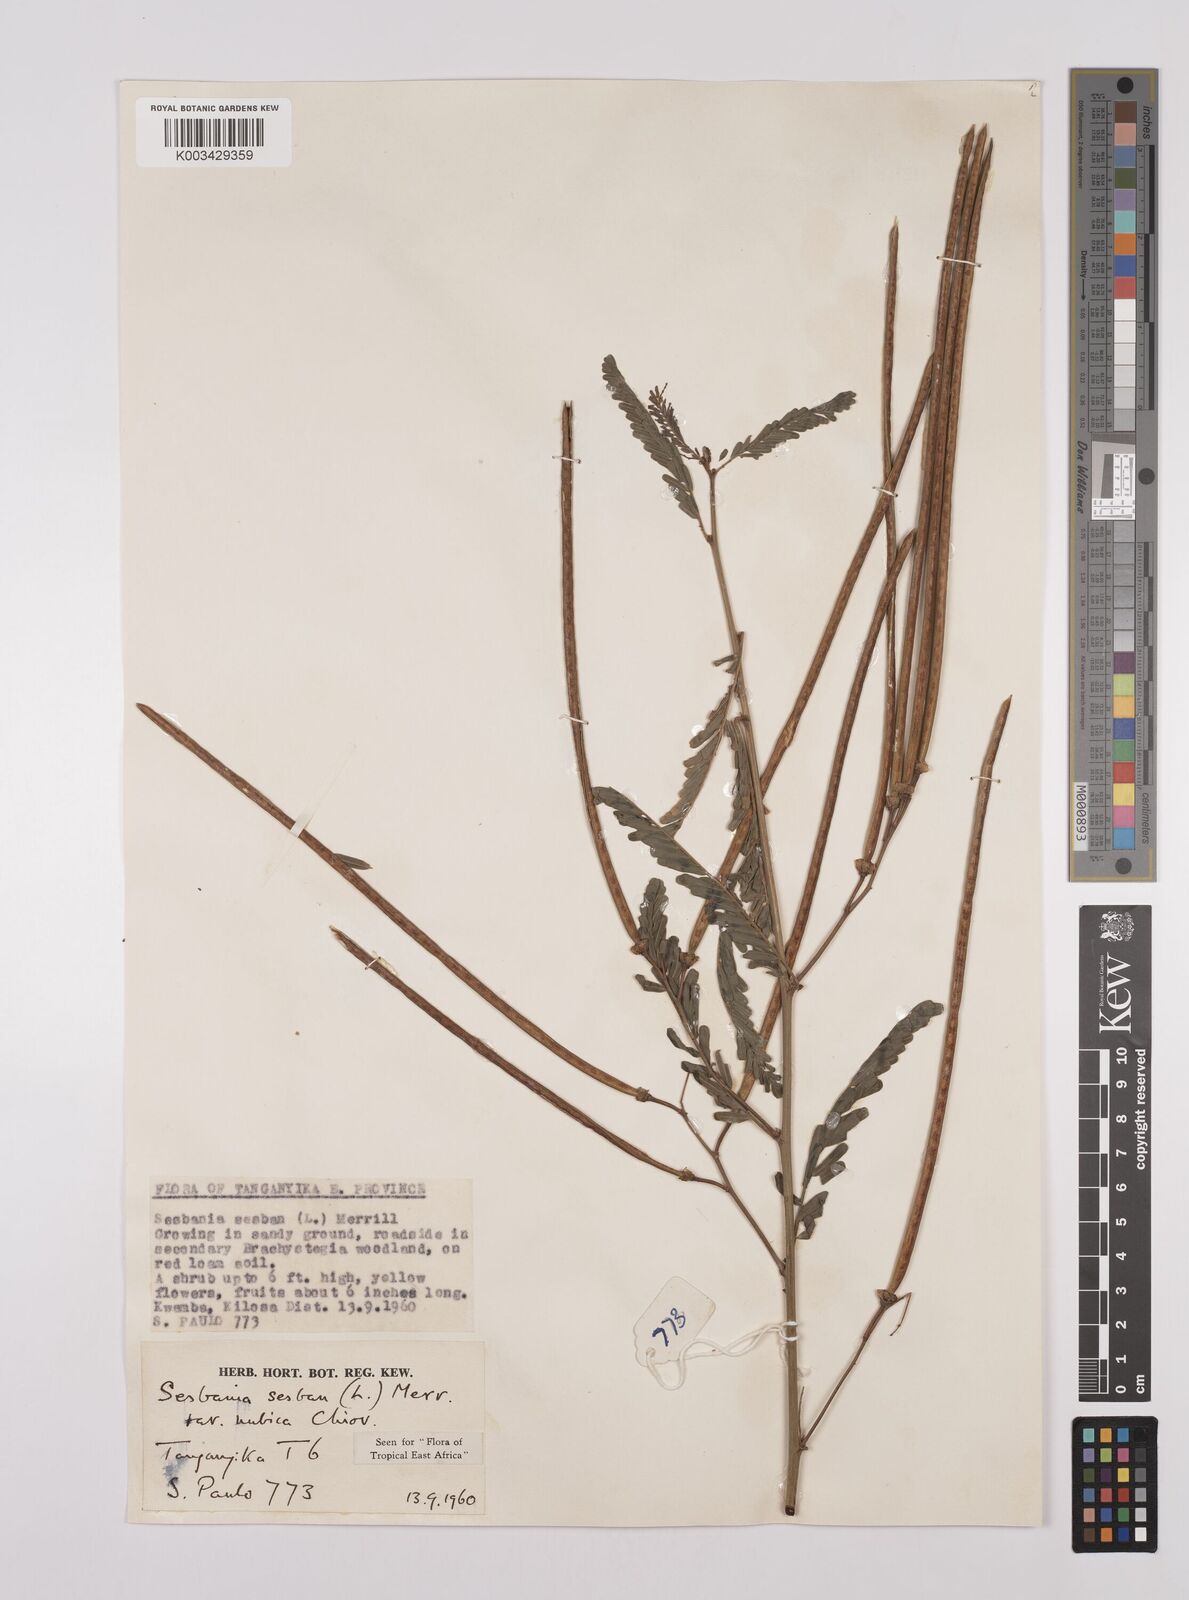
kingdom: Plantae
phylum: Tracheophyta
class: Magnoliopsida
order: Fabales
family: Fabaceae
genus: Sesbania
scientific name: Sesbania sesban
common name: Egyptian sesban
